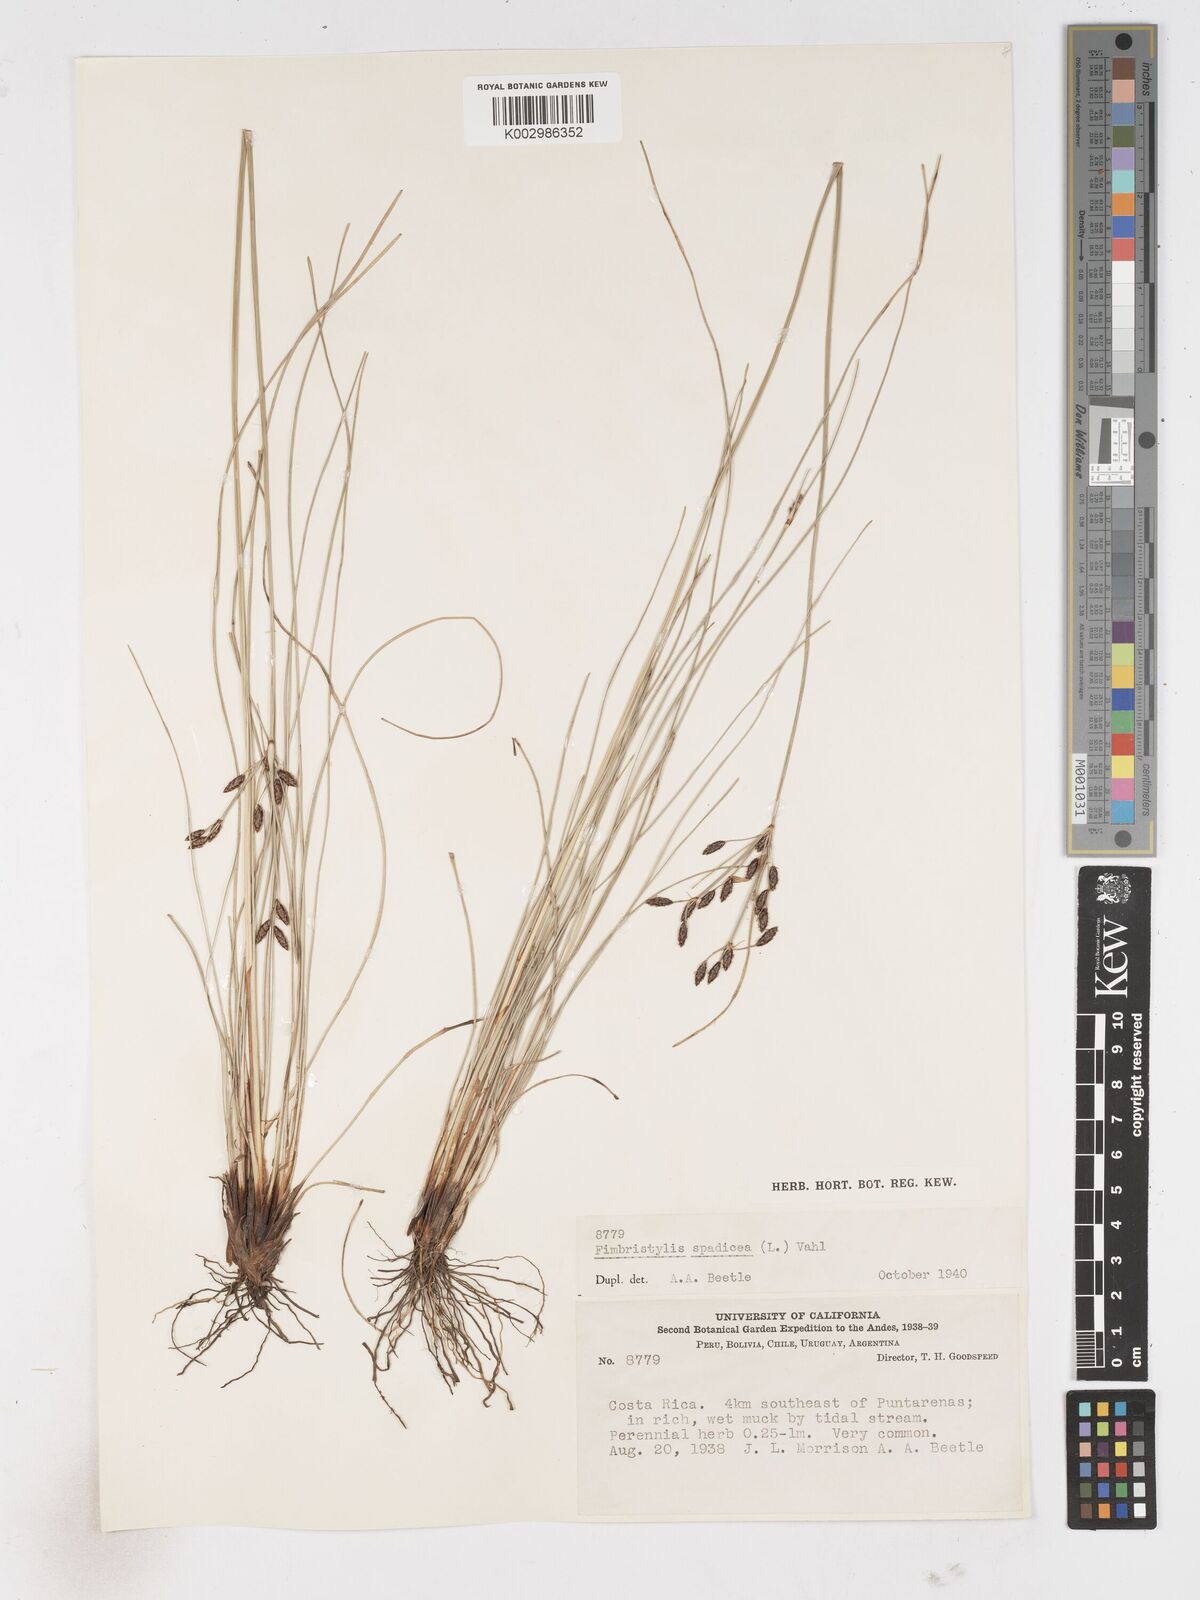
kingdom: Plantae
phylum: Tracheophyta
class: Liliopsida
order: Poales
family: Cyperaceae
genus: Fimbristylis
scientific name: Fimbristylis
